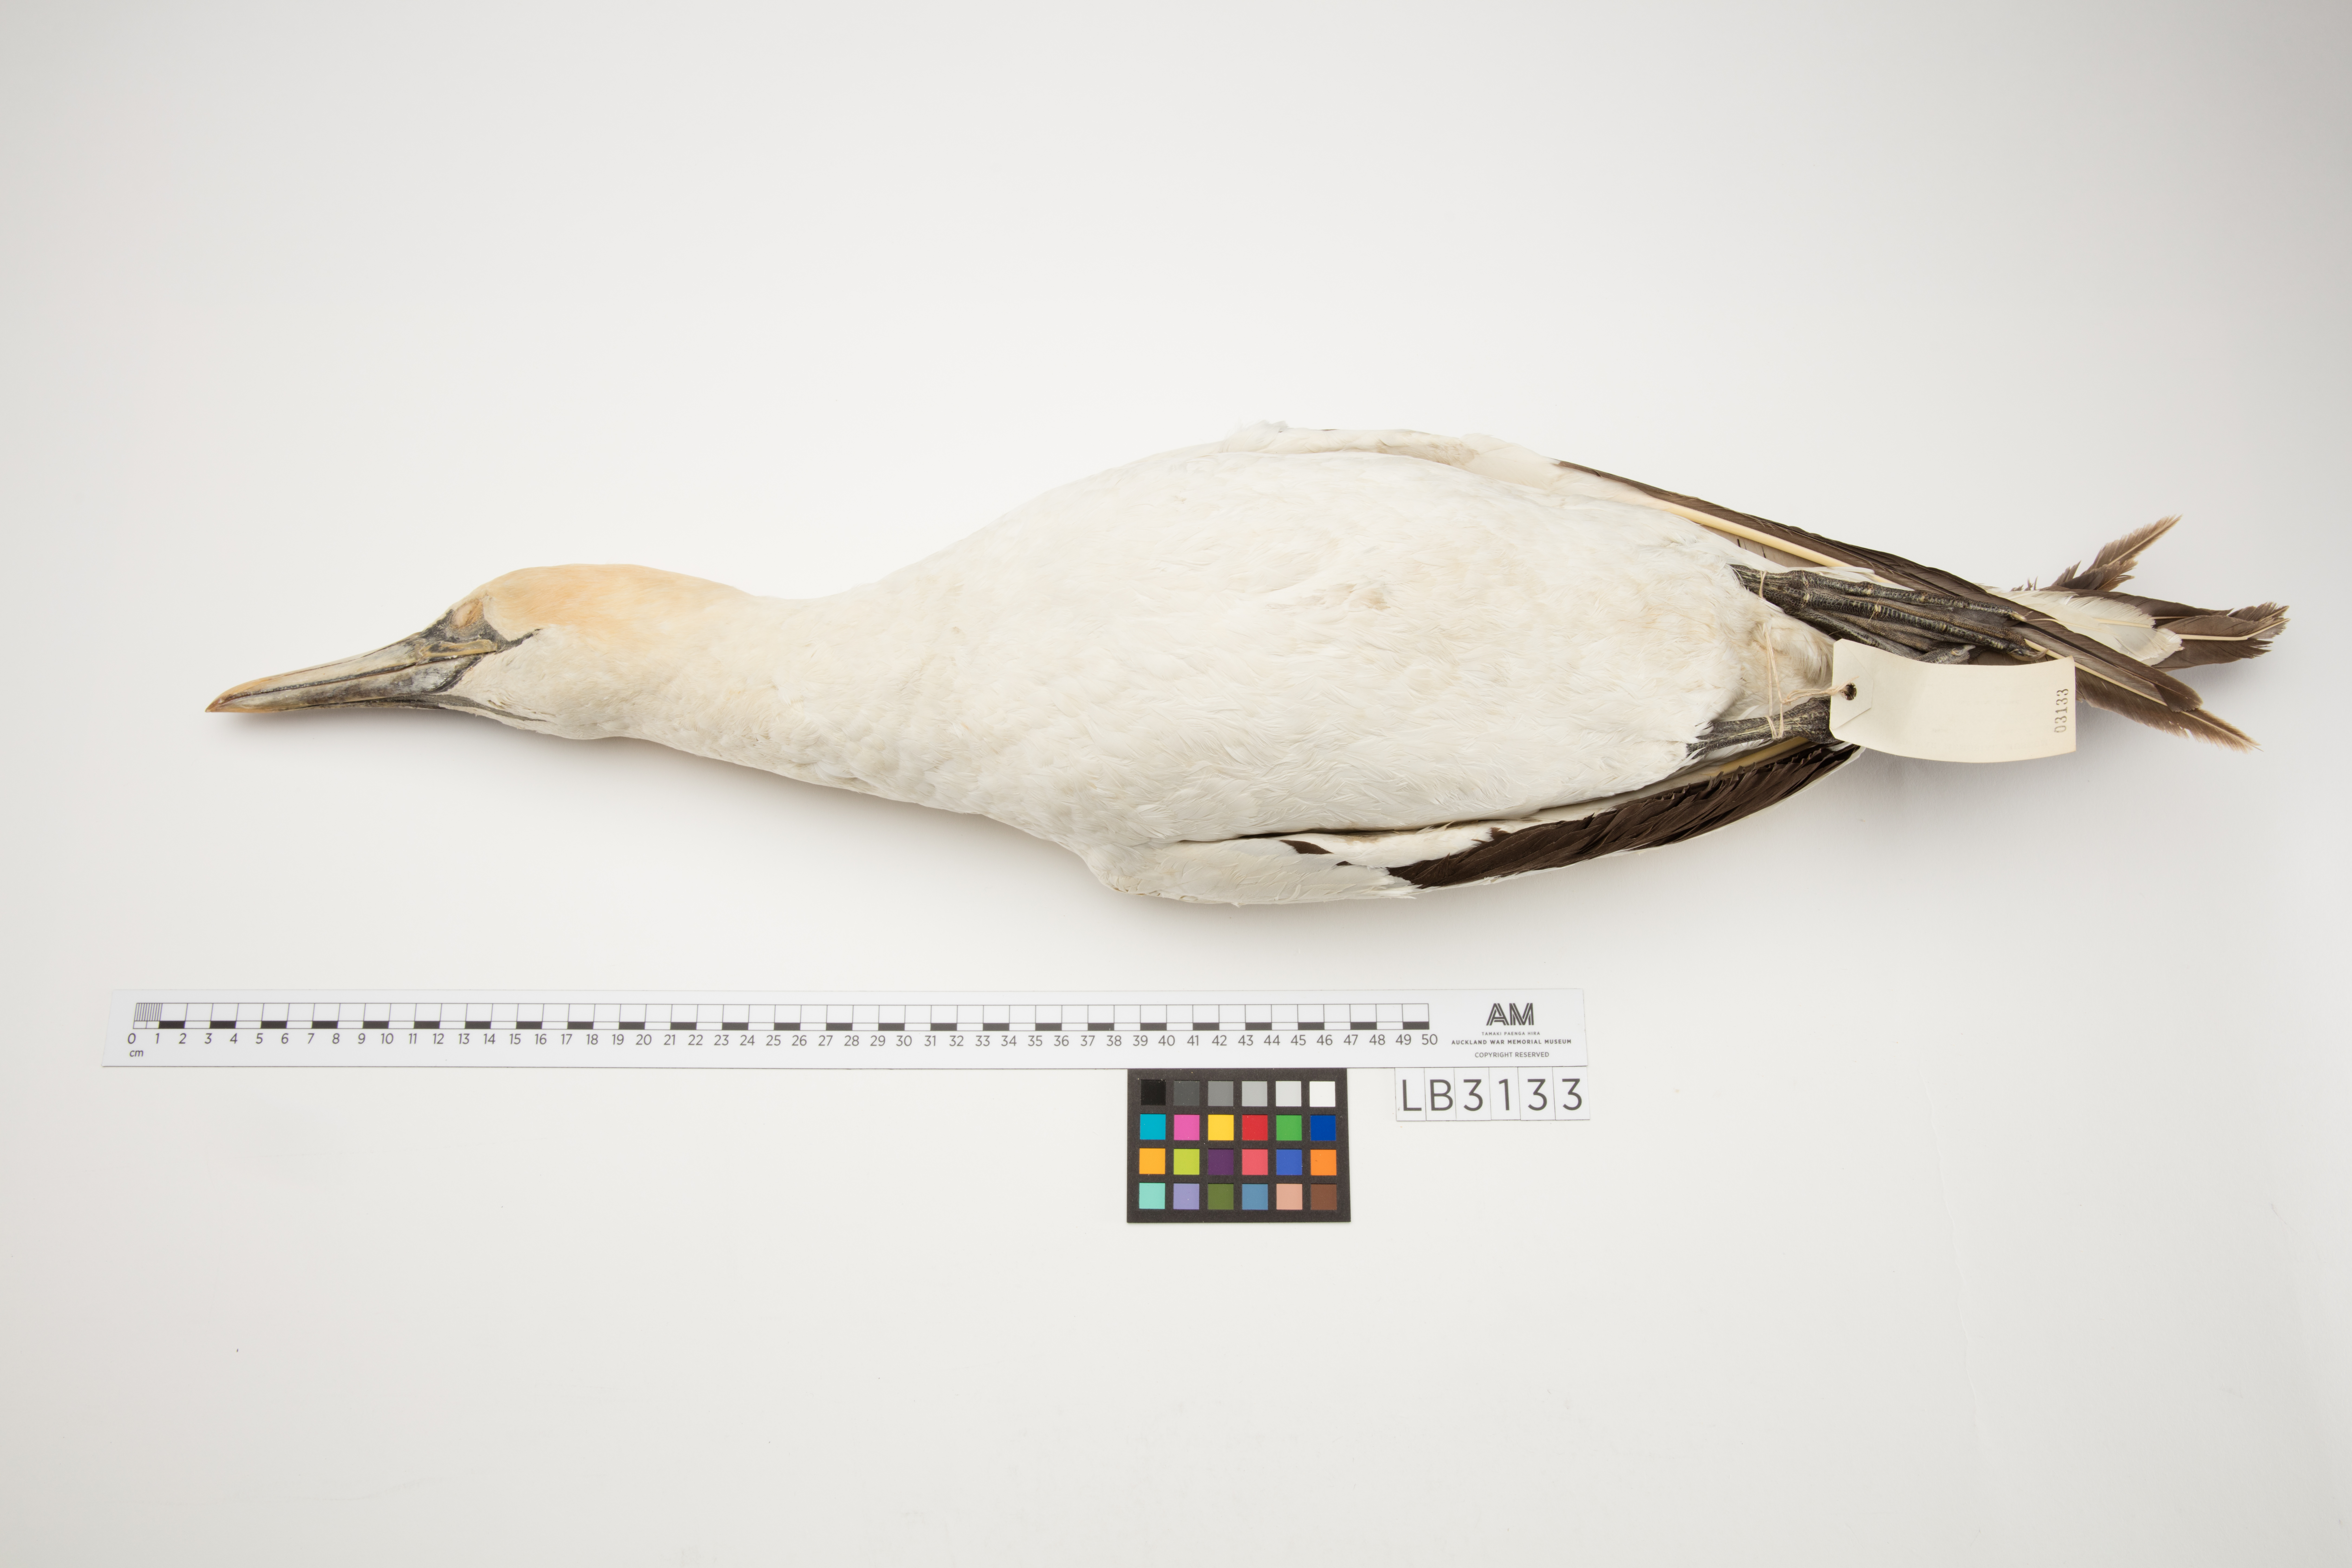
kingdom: Animalia
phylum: Chordata
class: Aves
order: Suliformes
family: Sulidae
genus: Morus
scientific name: Morus serrator
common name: Australasian gannet
